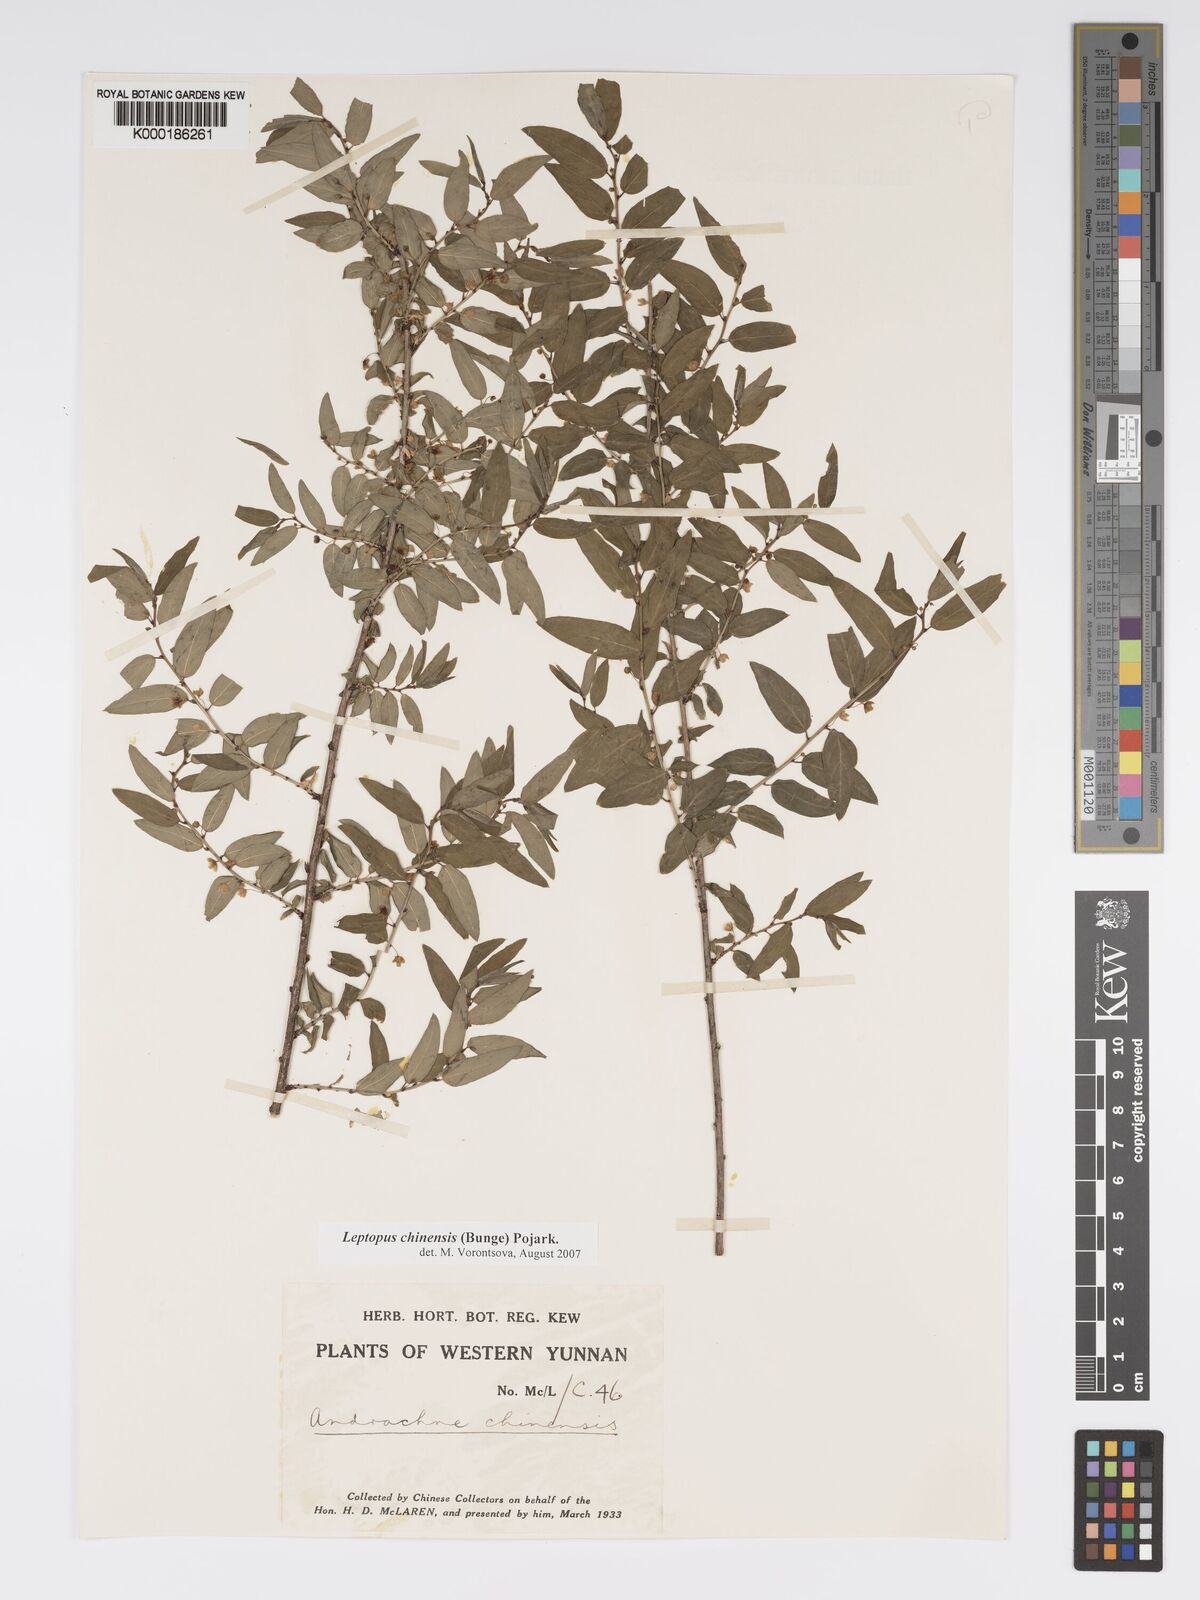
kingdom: Plantae
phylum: Tracheophyta
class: Magnoliopsida
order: Malpighiales
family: Phyllanthaceae
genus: Leptopus
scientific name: Leptopus chinensis
